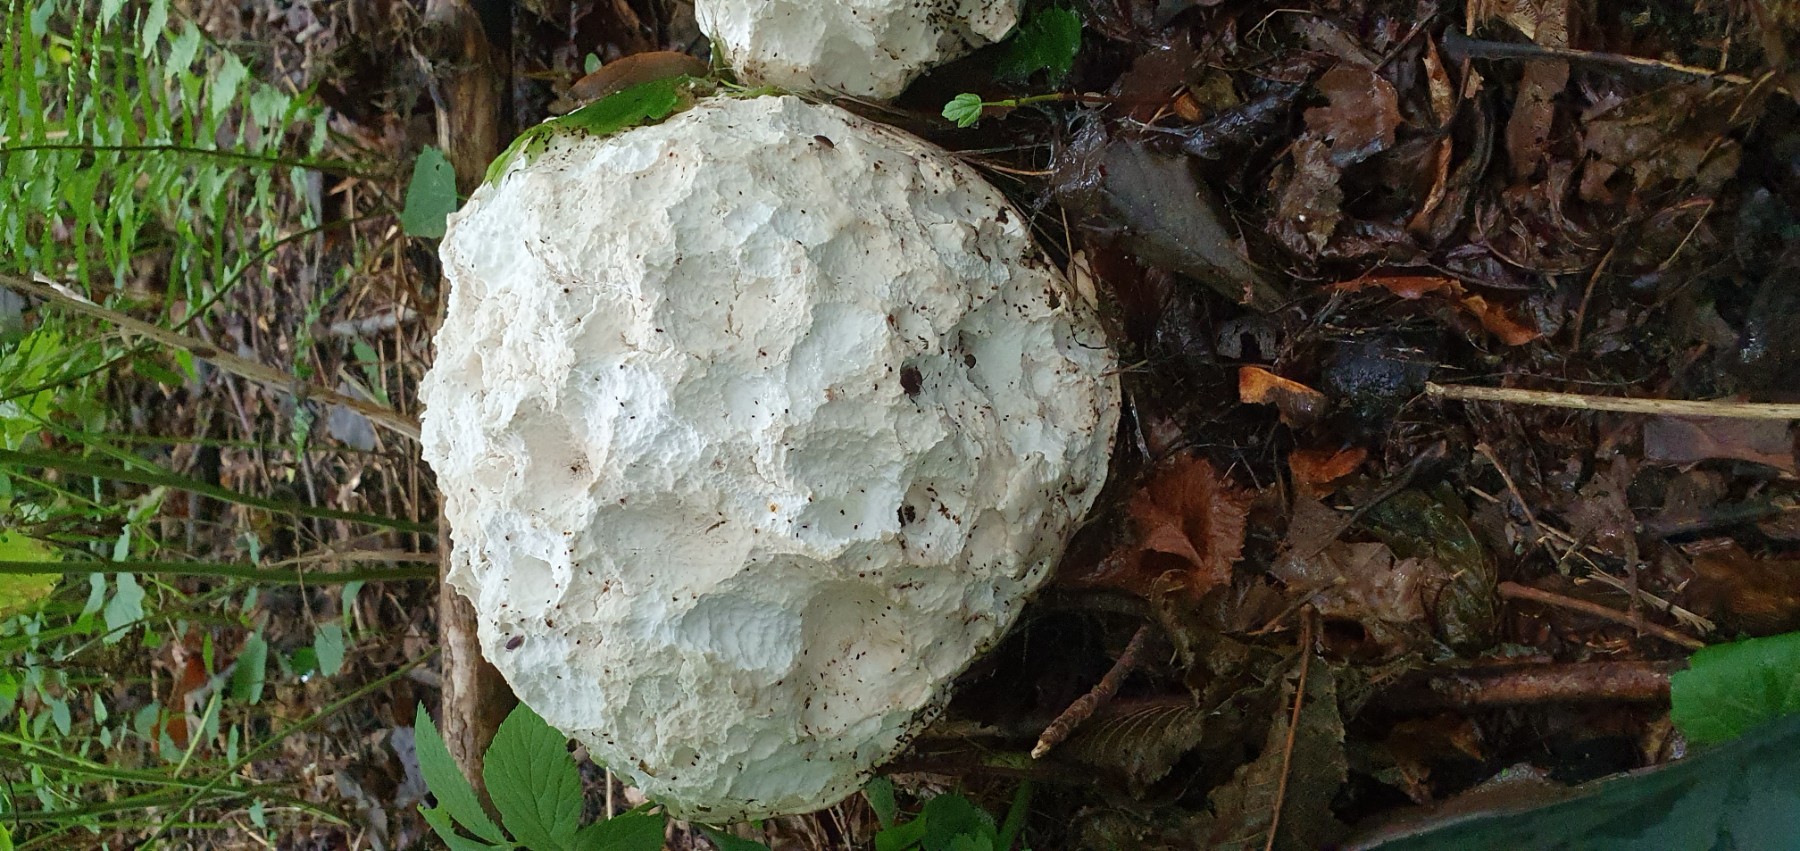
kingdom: Fungi
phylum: Basidiomycota
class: Agaricomycetes
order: Agaricales
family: Lycoperdaceae
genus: Calvatia
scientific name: Calvatia gigantea
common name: kæmpestøvbold
